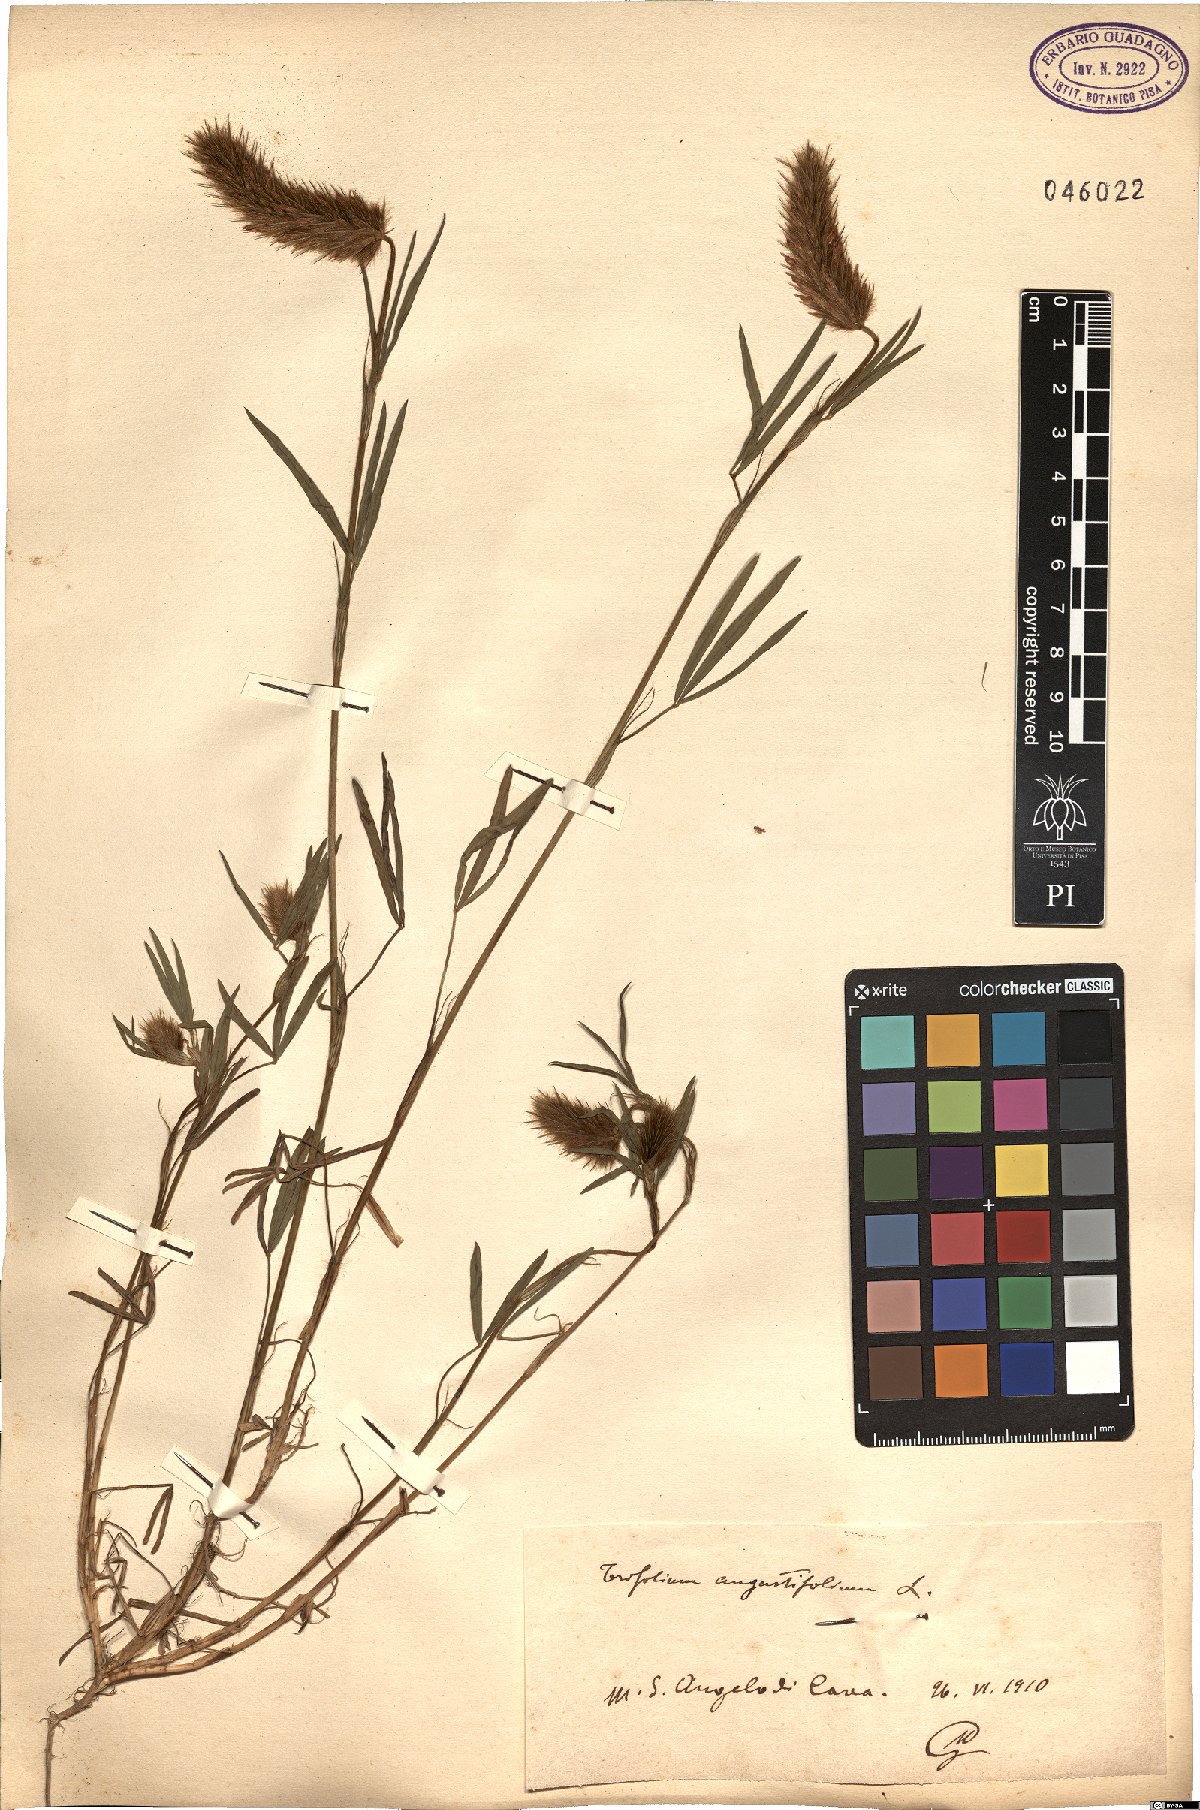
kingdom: Plantae
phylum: Tracheophyta
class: Magnoliopsida
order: Fabales
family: Fabaceae
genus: Trifolium
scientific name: Trifolium angustifolium
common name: Narrow clover
